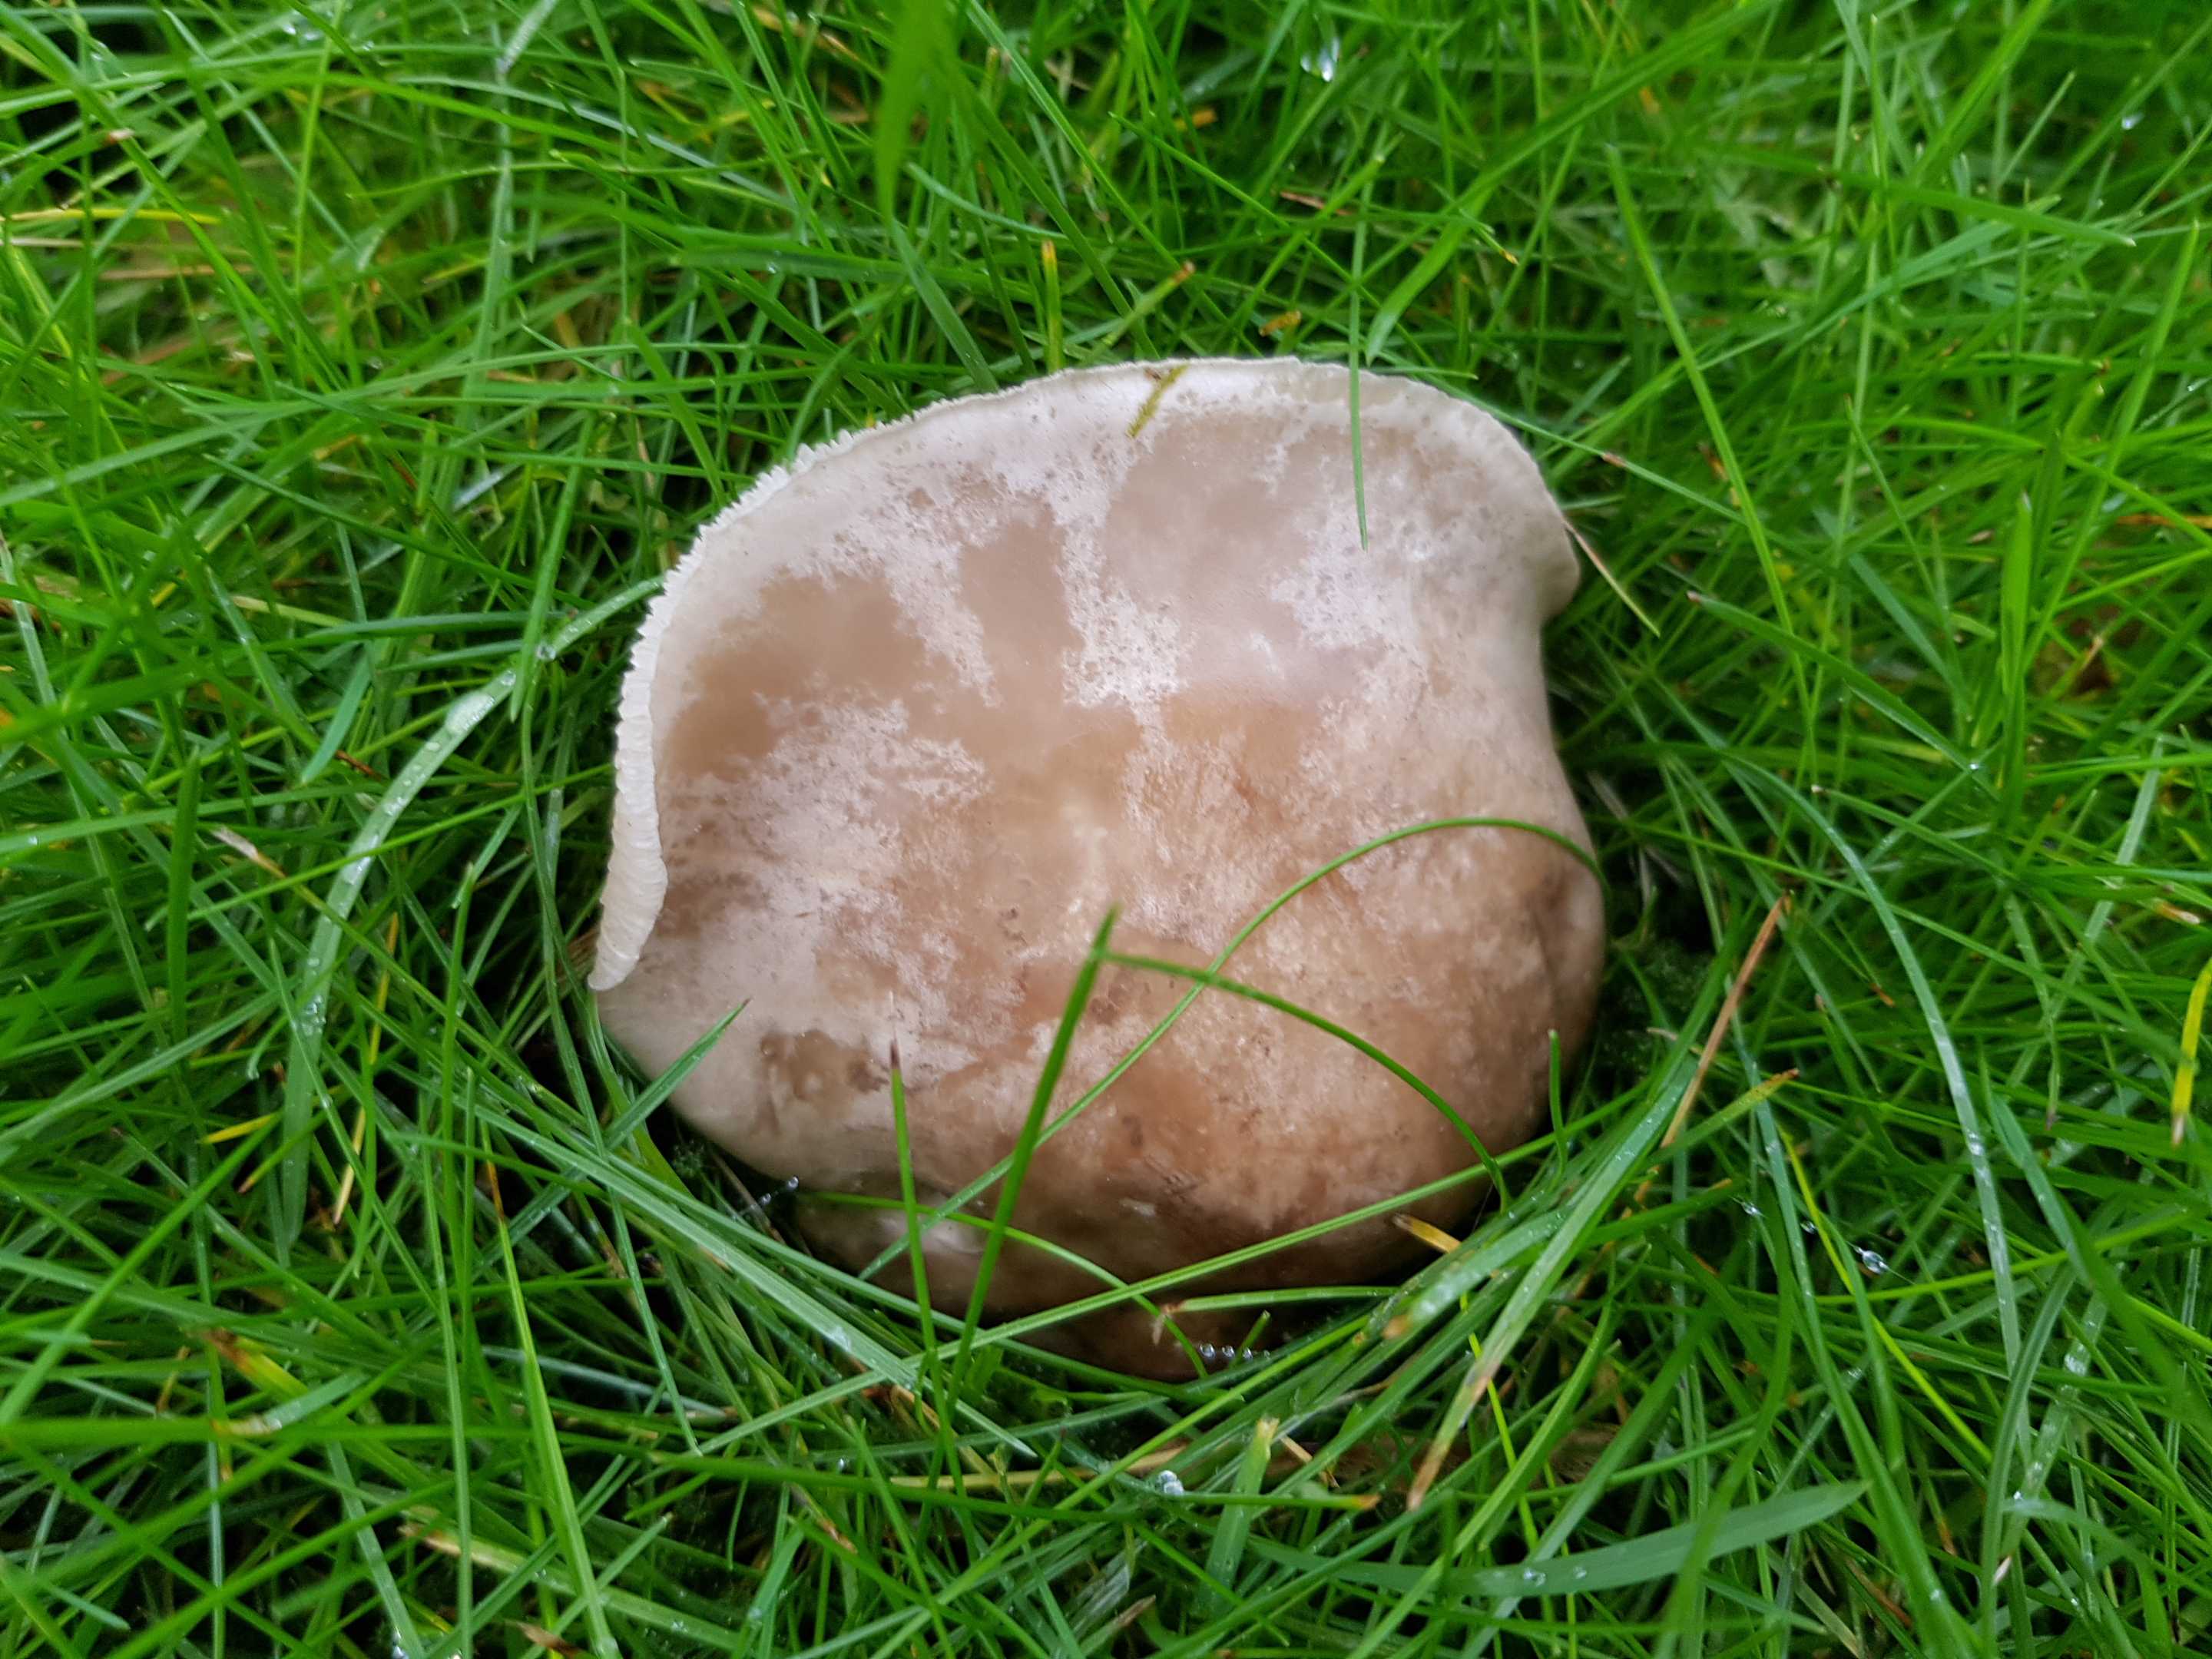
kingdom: Fungi
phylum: Basidiomycota
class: Agaricomycetes
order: Agaricales
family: Tricholomataceae
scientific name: Tricholomataceae
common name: ridderhatfamilien
